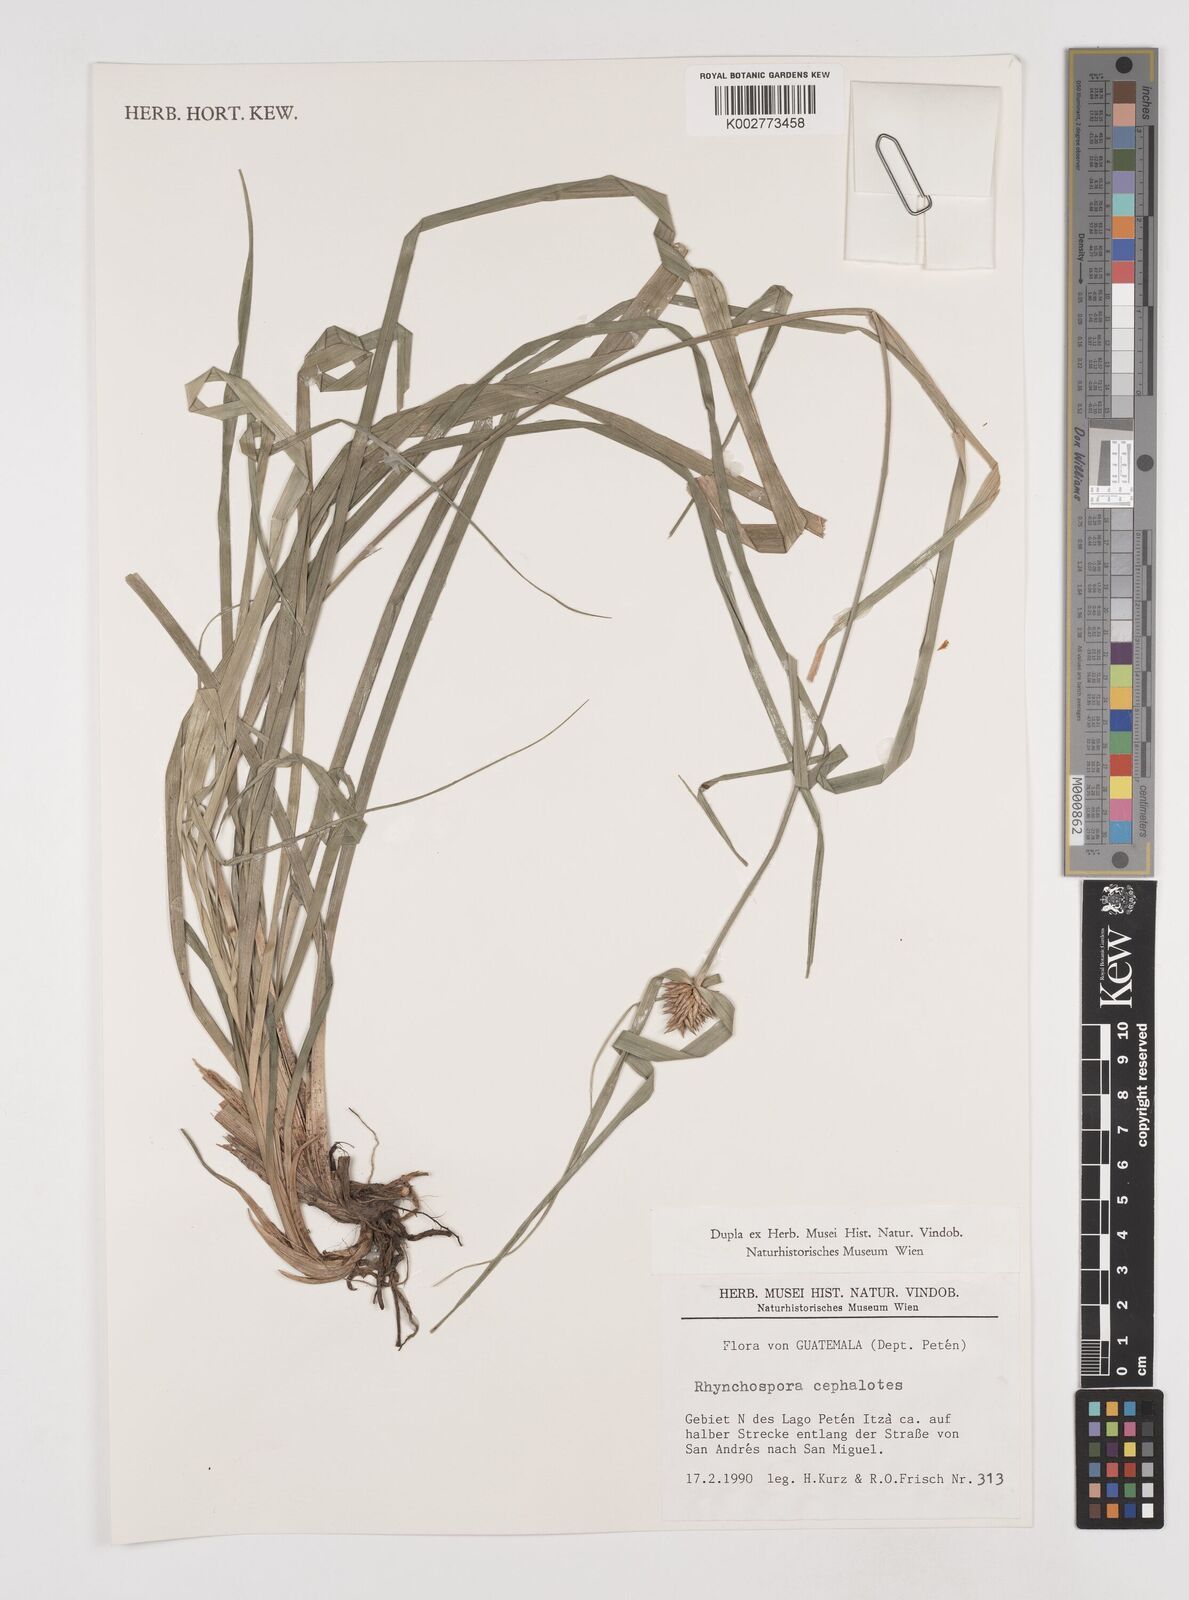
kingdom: Plantae
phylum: Tracheophyta
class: Liliopsida
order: Poales
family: Cyperaceae
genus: Rhynchospora
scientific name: Rhynchospora cephalotes
